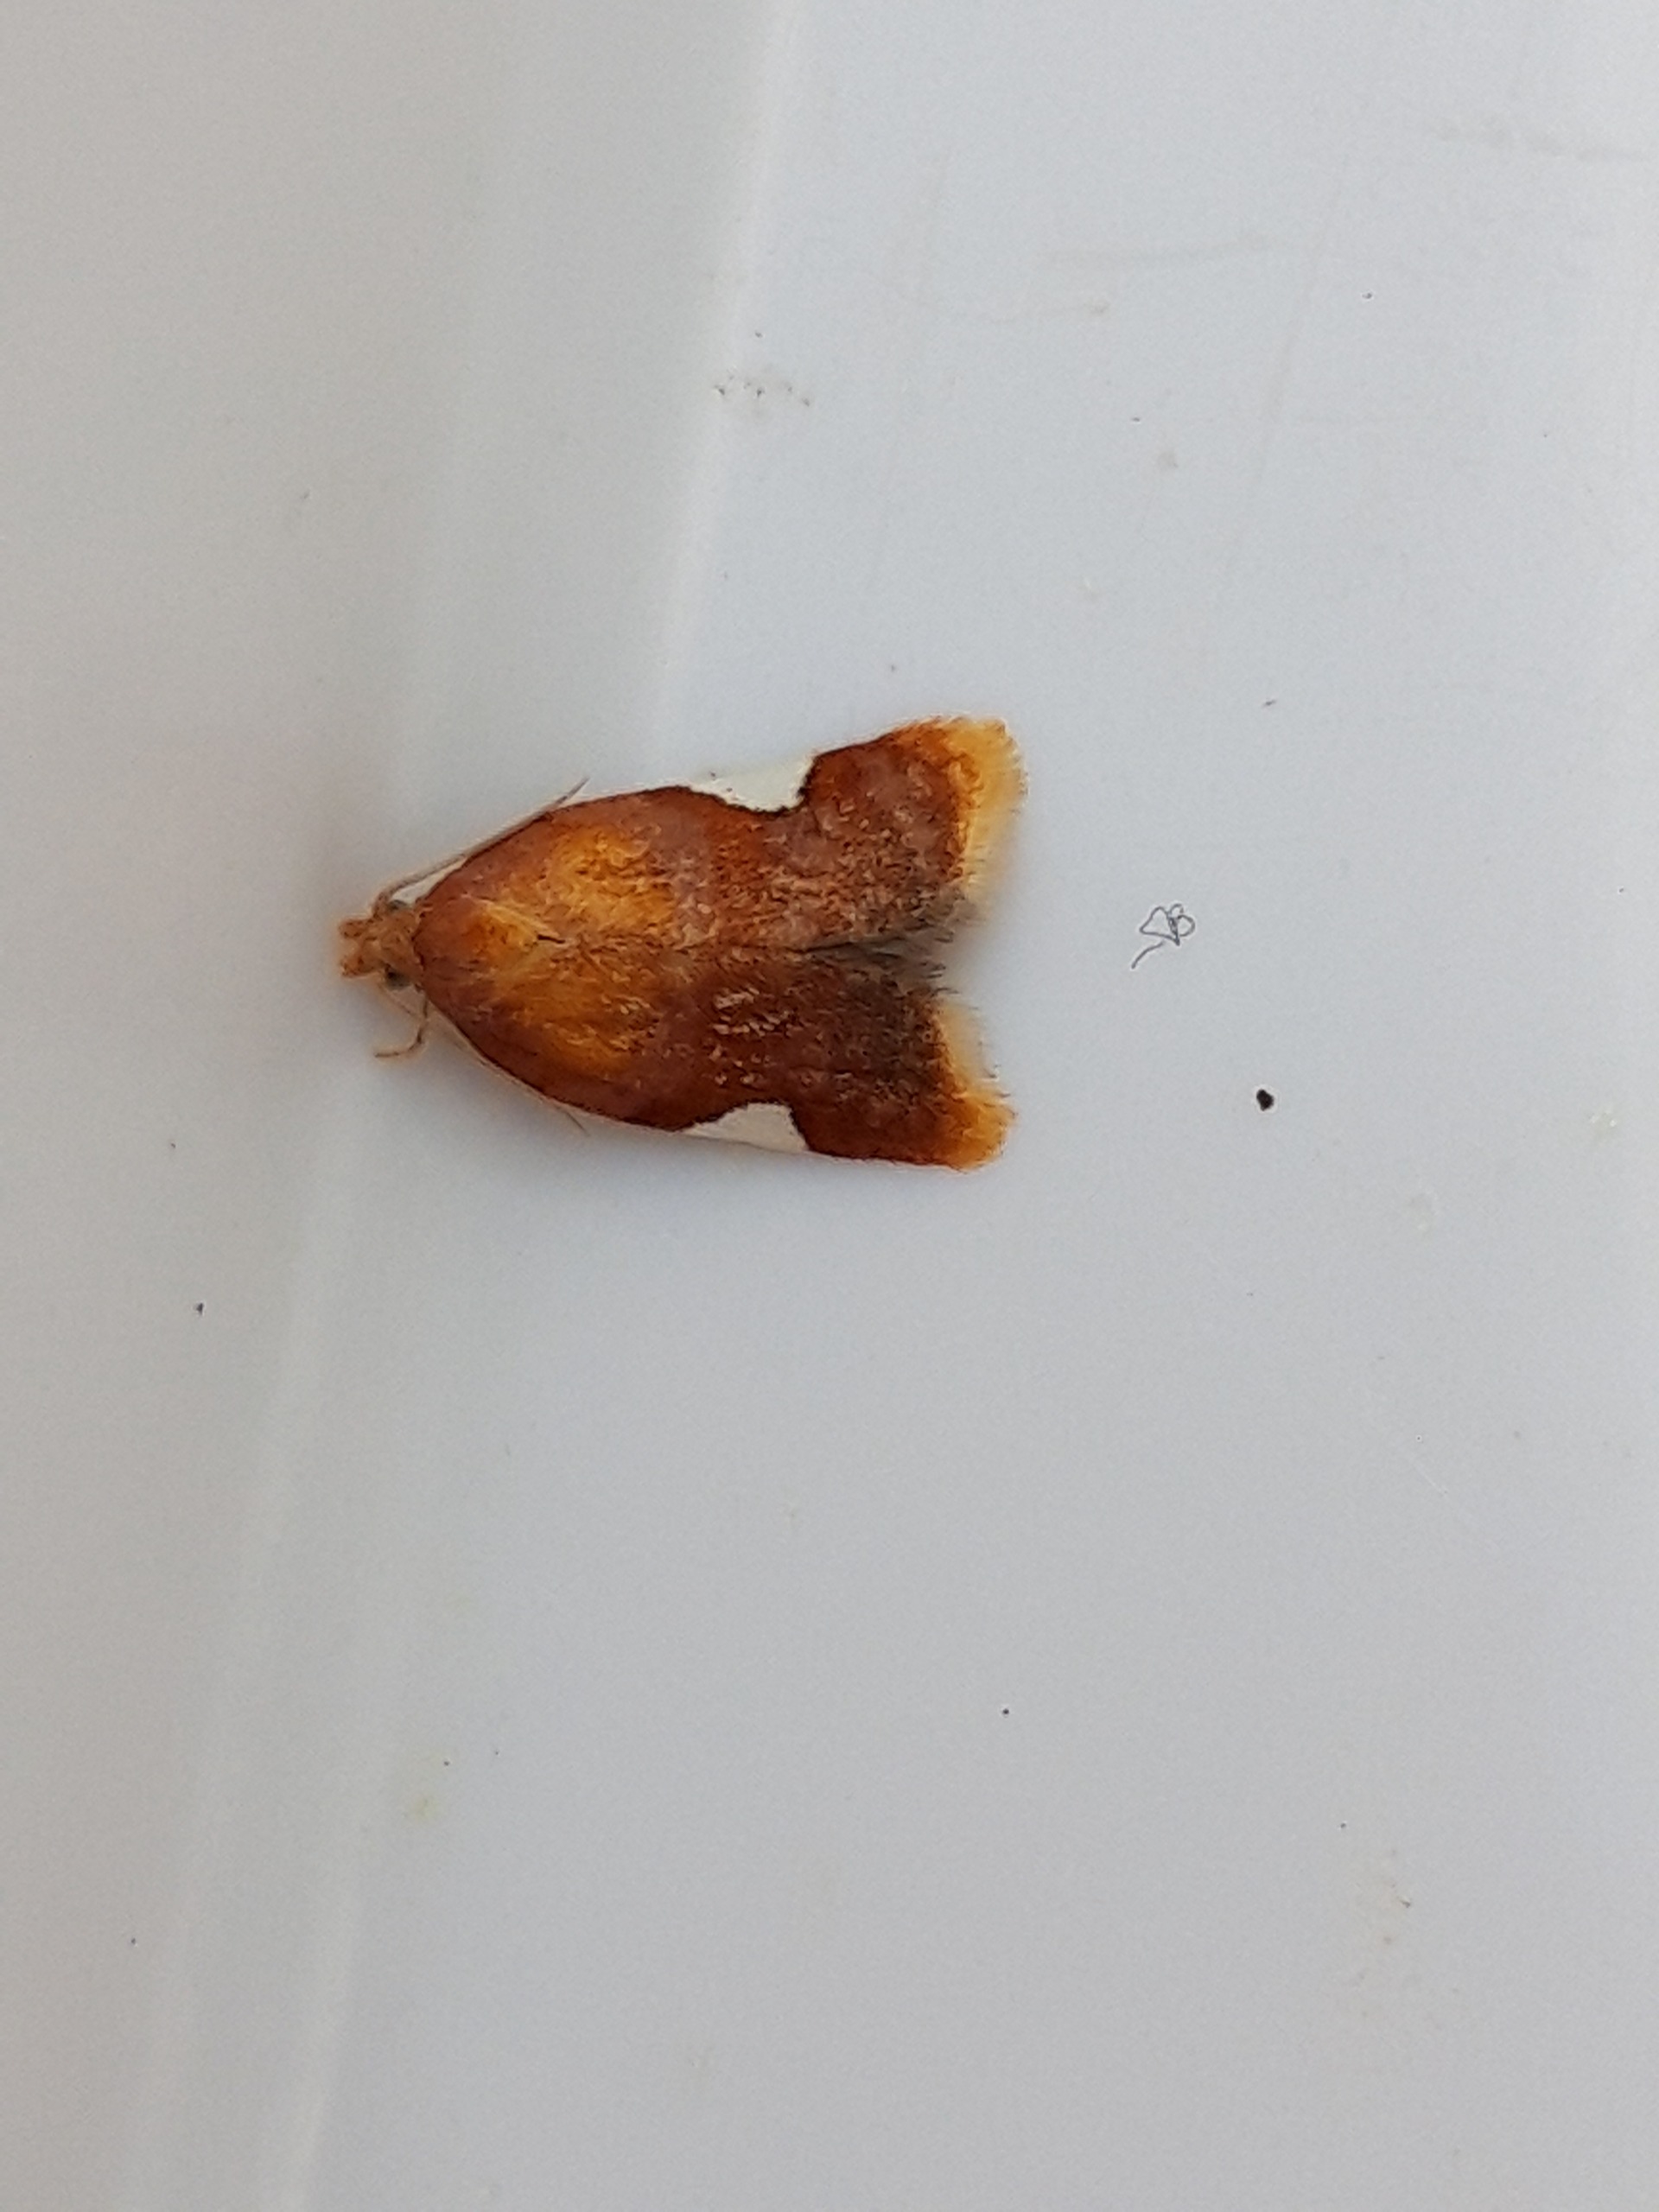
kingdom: Animalia
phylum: Arthropoda
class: Insecta
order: Lepidoptera
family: Tortricidae
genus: Acleris
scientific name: Acleris holmiana
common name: Bladrandvikler
